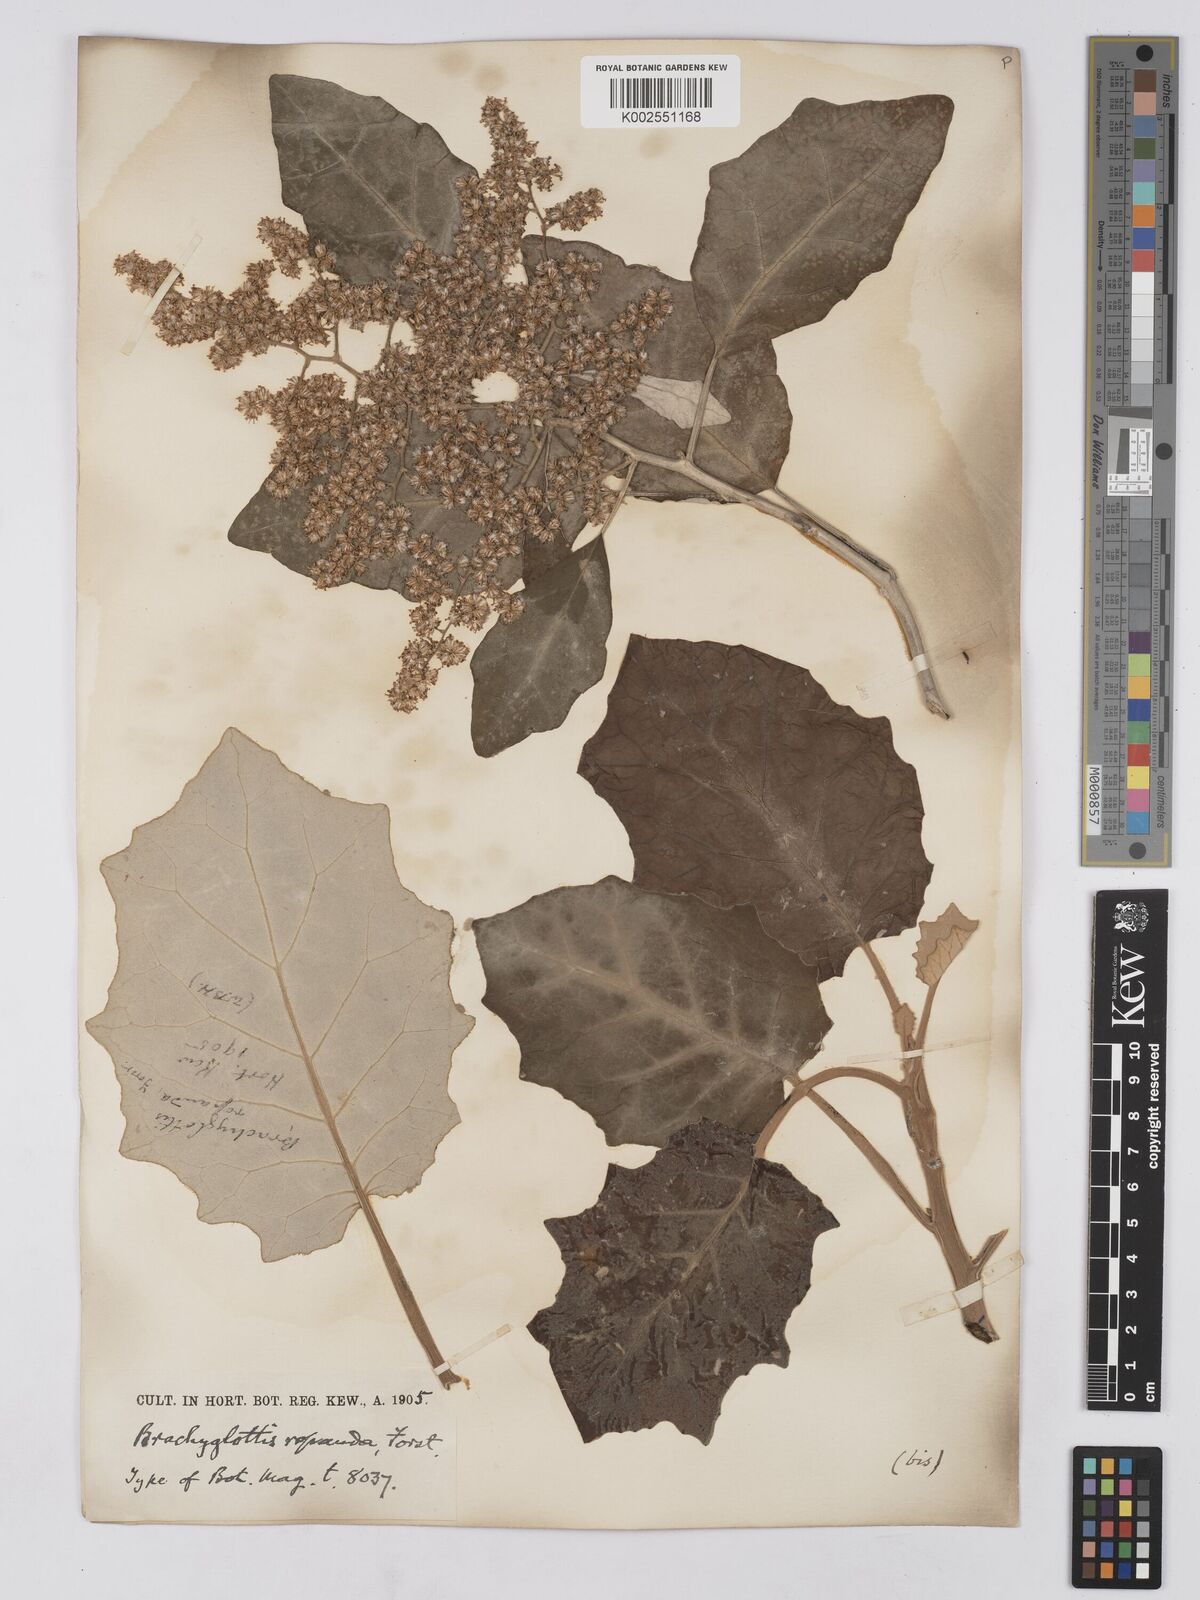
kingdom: Plantae
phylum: Tracheophyta
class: Magnoliopsida
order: Asterales
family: Asteraceae
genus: Brachyglottis
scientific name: Brachyglottis repanda
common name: Hedge ragwort
